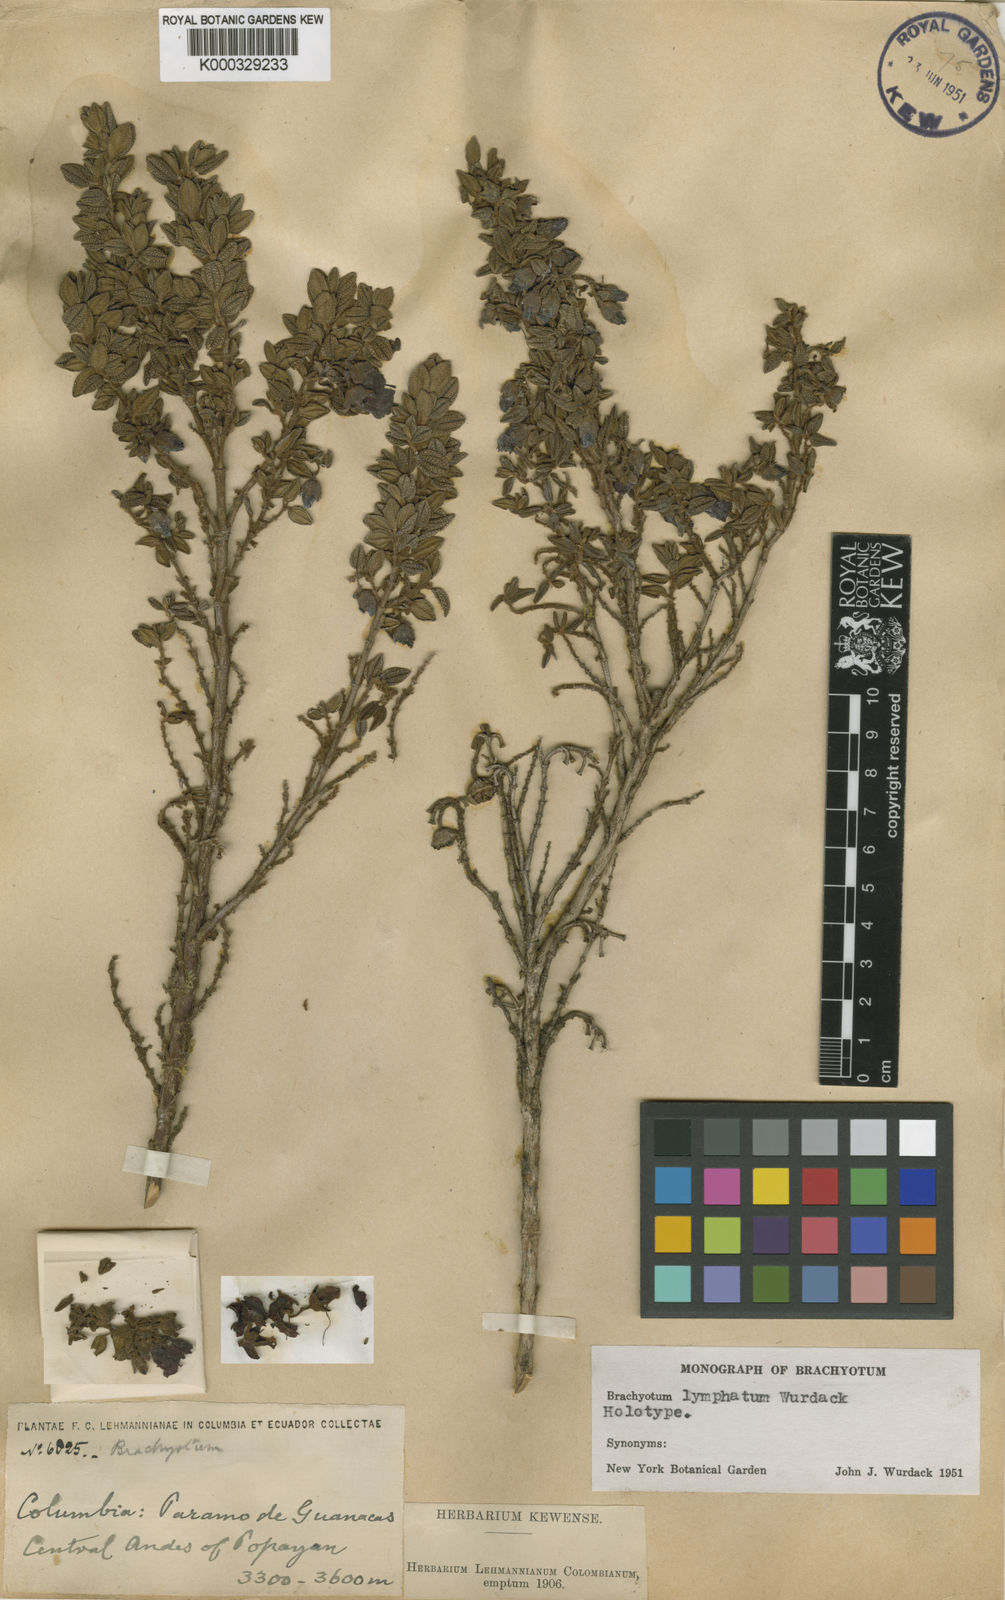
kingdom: Plantae
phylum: Tracheophyta
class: Magnoliopsida
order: Myrtales
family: Melastomataceae
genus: Brachyotum
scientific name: Brachyotum lymphatum
